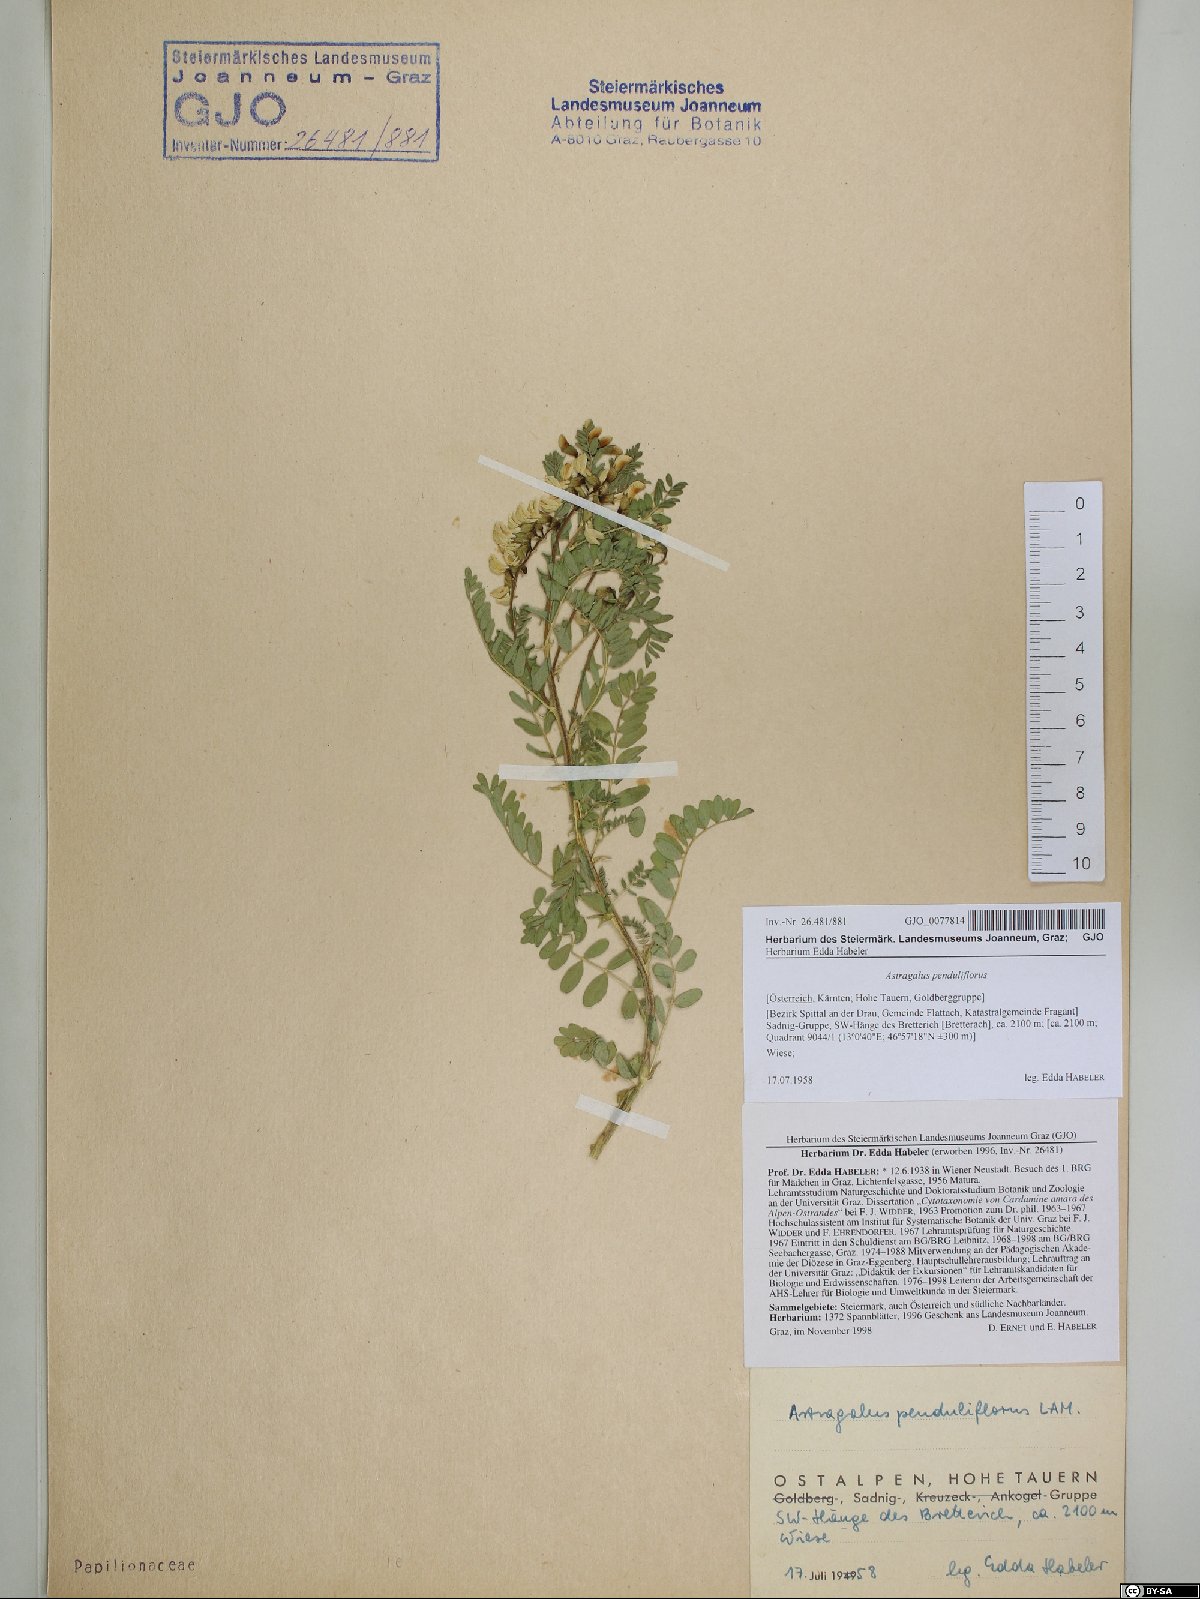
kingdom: Plantae
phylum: Tracheophyta
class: Magnoliopsida
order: Fabales
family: Fabaceae
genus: Astragalus
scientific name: Astragalus penduliflorus
